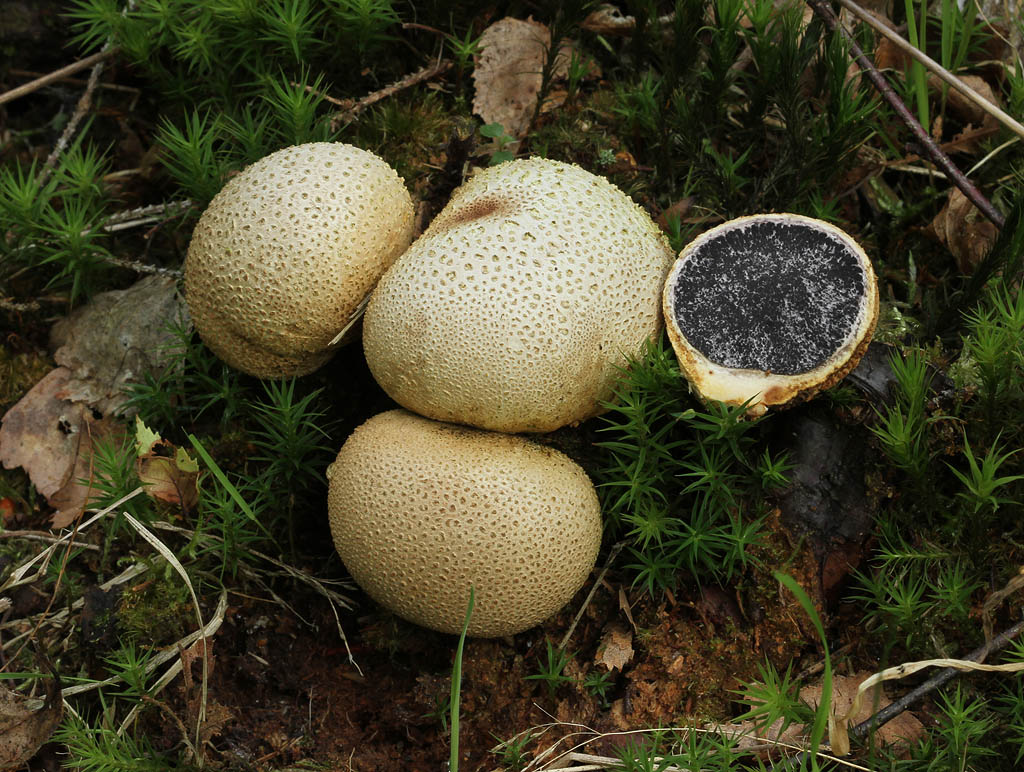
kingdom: Fungi
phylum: Basidiomycota
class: Agaricomycetes
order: Boletales
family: Sclerodermataceae
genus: Scleroderma
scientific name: Scleroderma citrinum
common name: almindelig bruskbold
